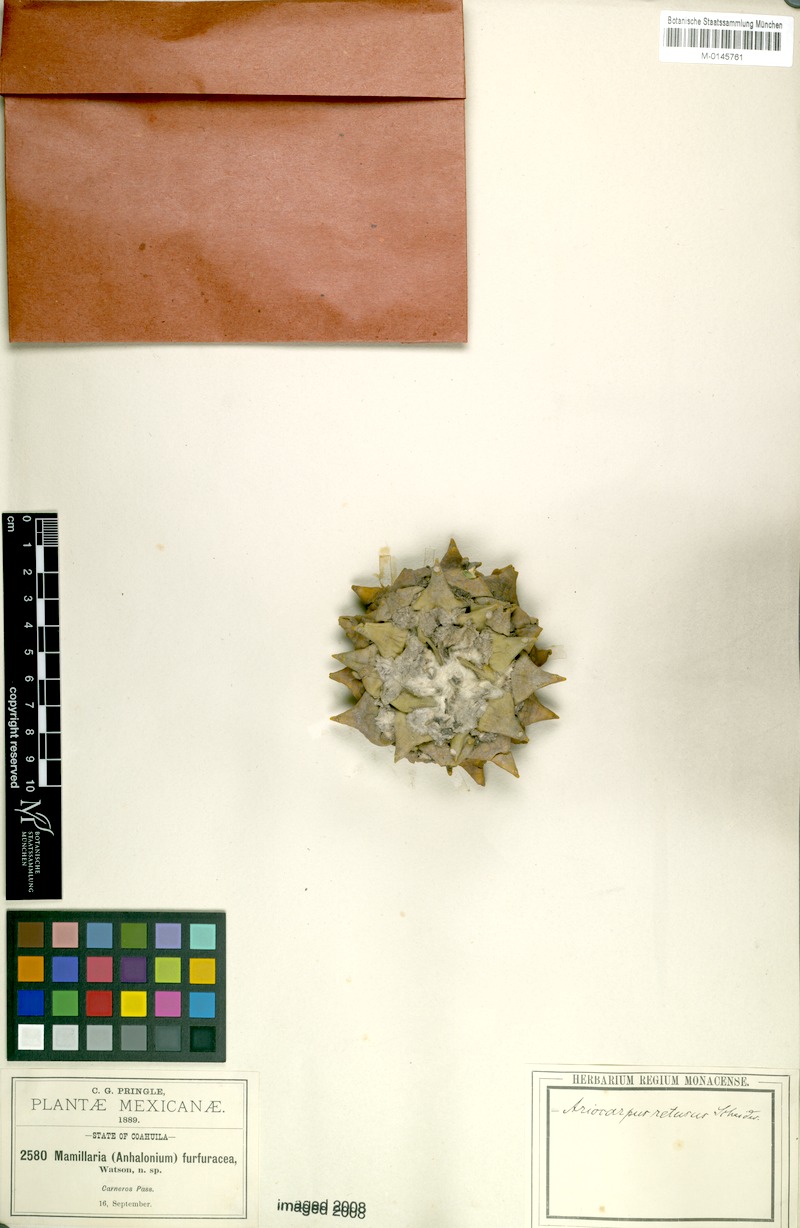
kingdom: Plantae
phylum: Tracheophyta
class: Magnoliopsida
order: Caryophyllales
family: Cactaceae
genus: Ariocarpus
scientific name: Ariocarpus retusus
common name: Seven stars
